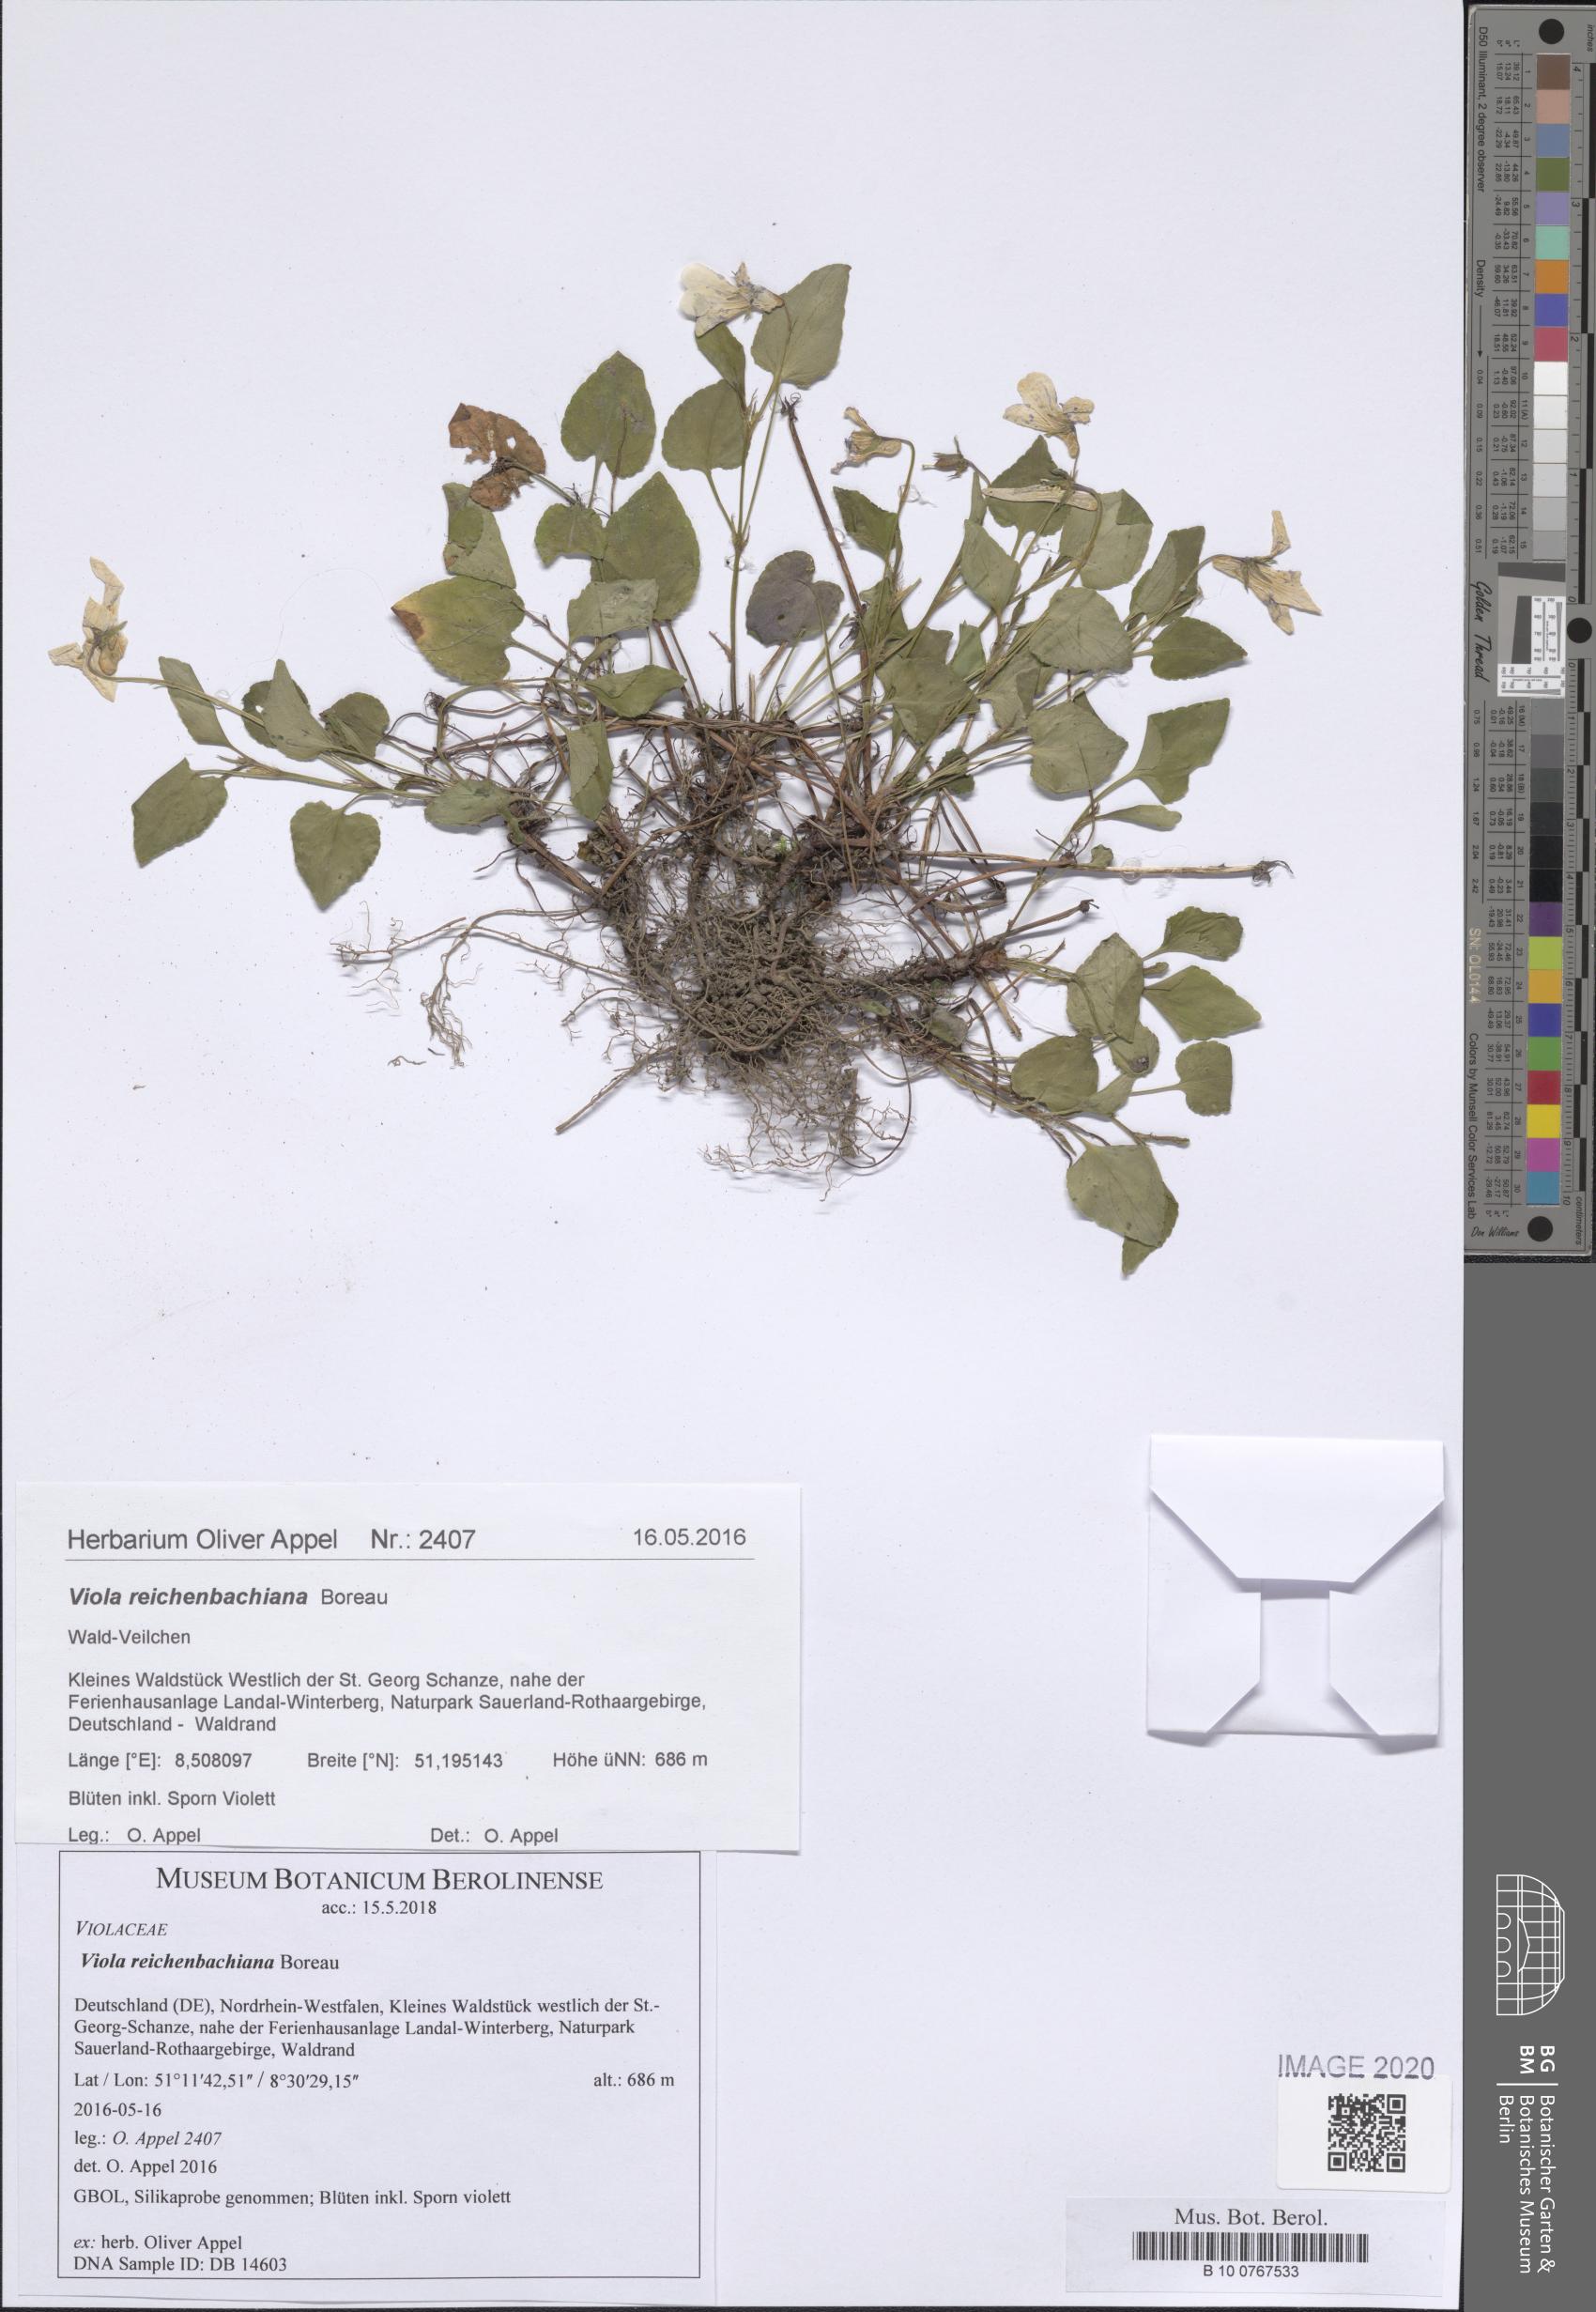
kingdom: Plantae
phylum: Tracheophyta
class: Magnoliopsida
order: Malpighiales
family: Violaceae
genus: Viola
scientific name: Viola reichenbachiana
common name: Early dog-violet
